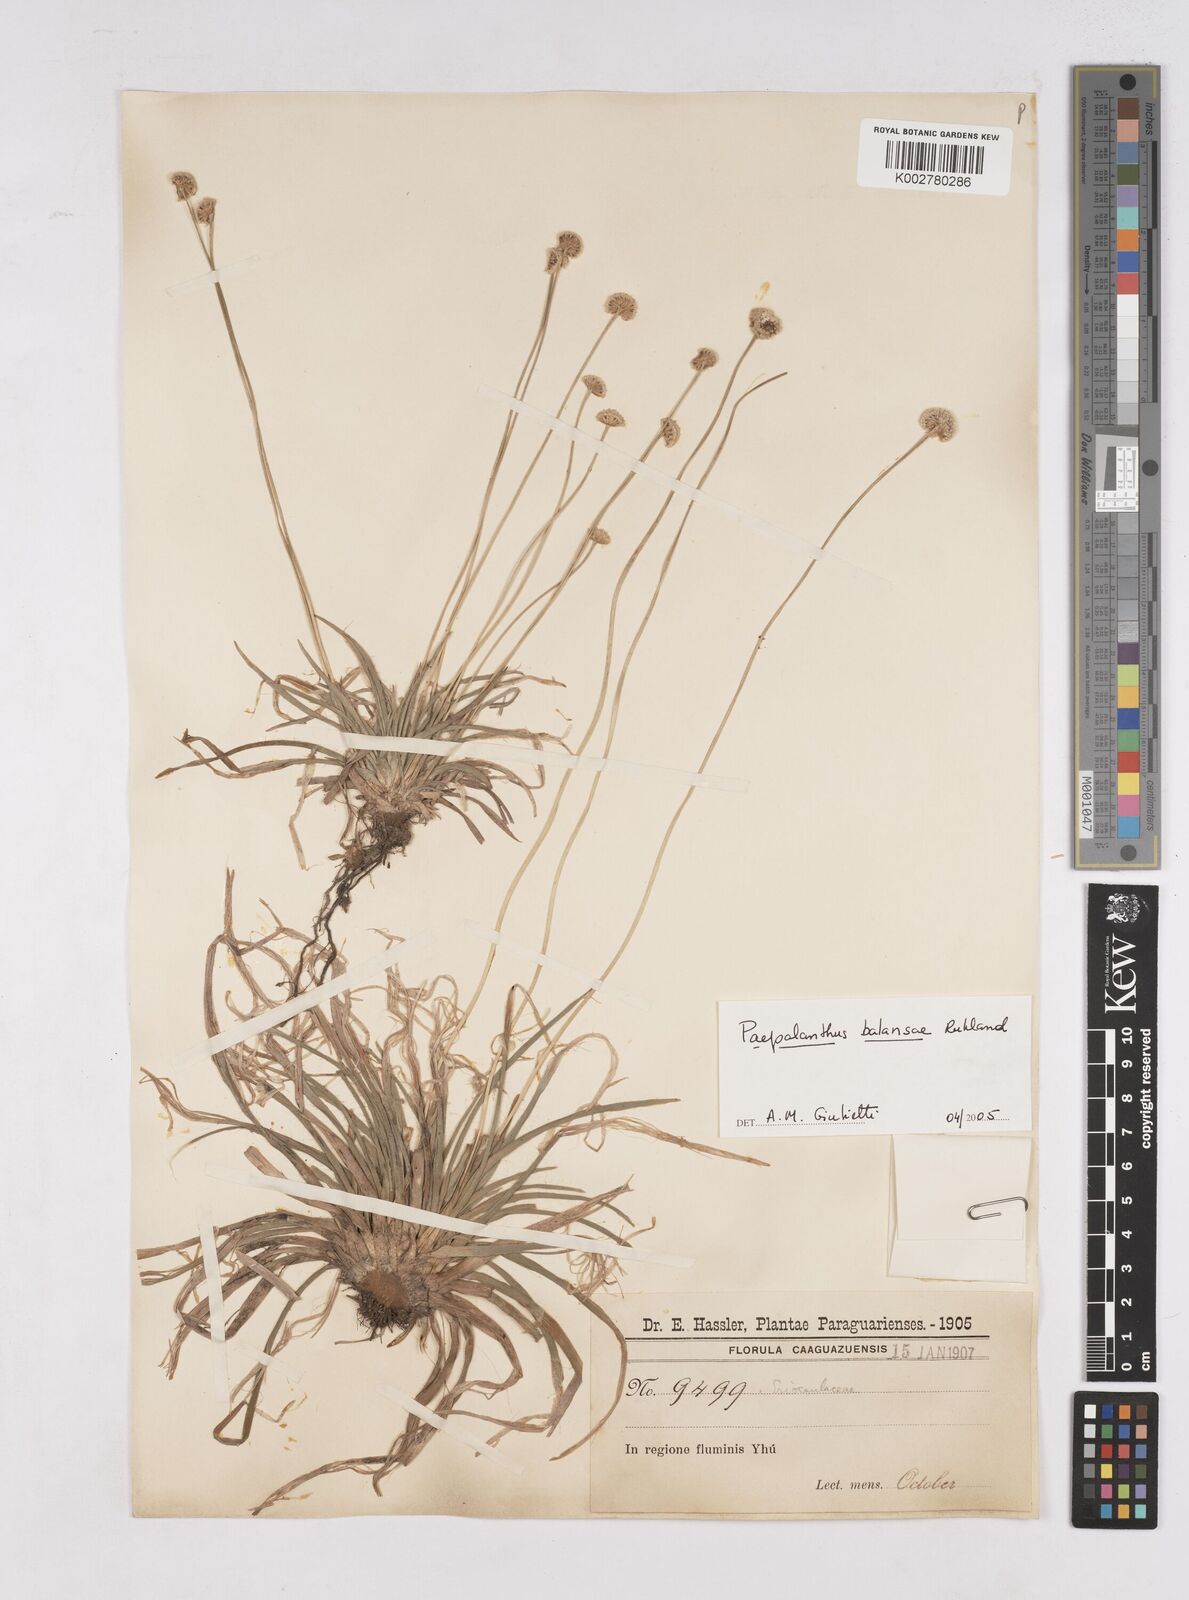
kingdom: Plantae
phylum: Tracheophyta
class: Liliopsida
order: Poales
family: Eriocaulaceae
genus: Paepalanthus
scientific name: Paepalanthus balansae
